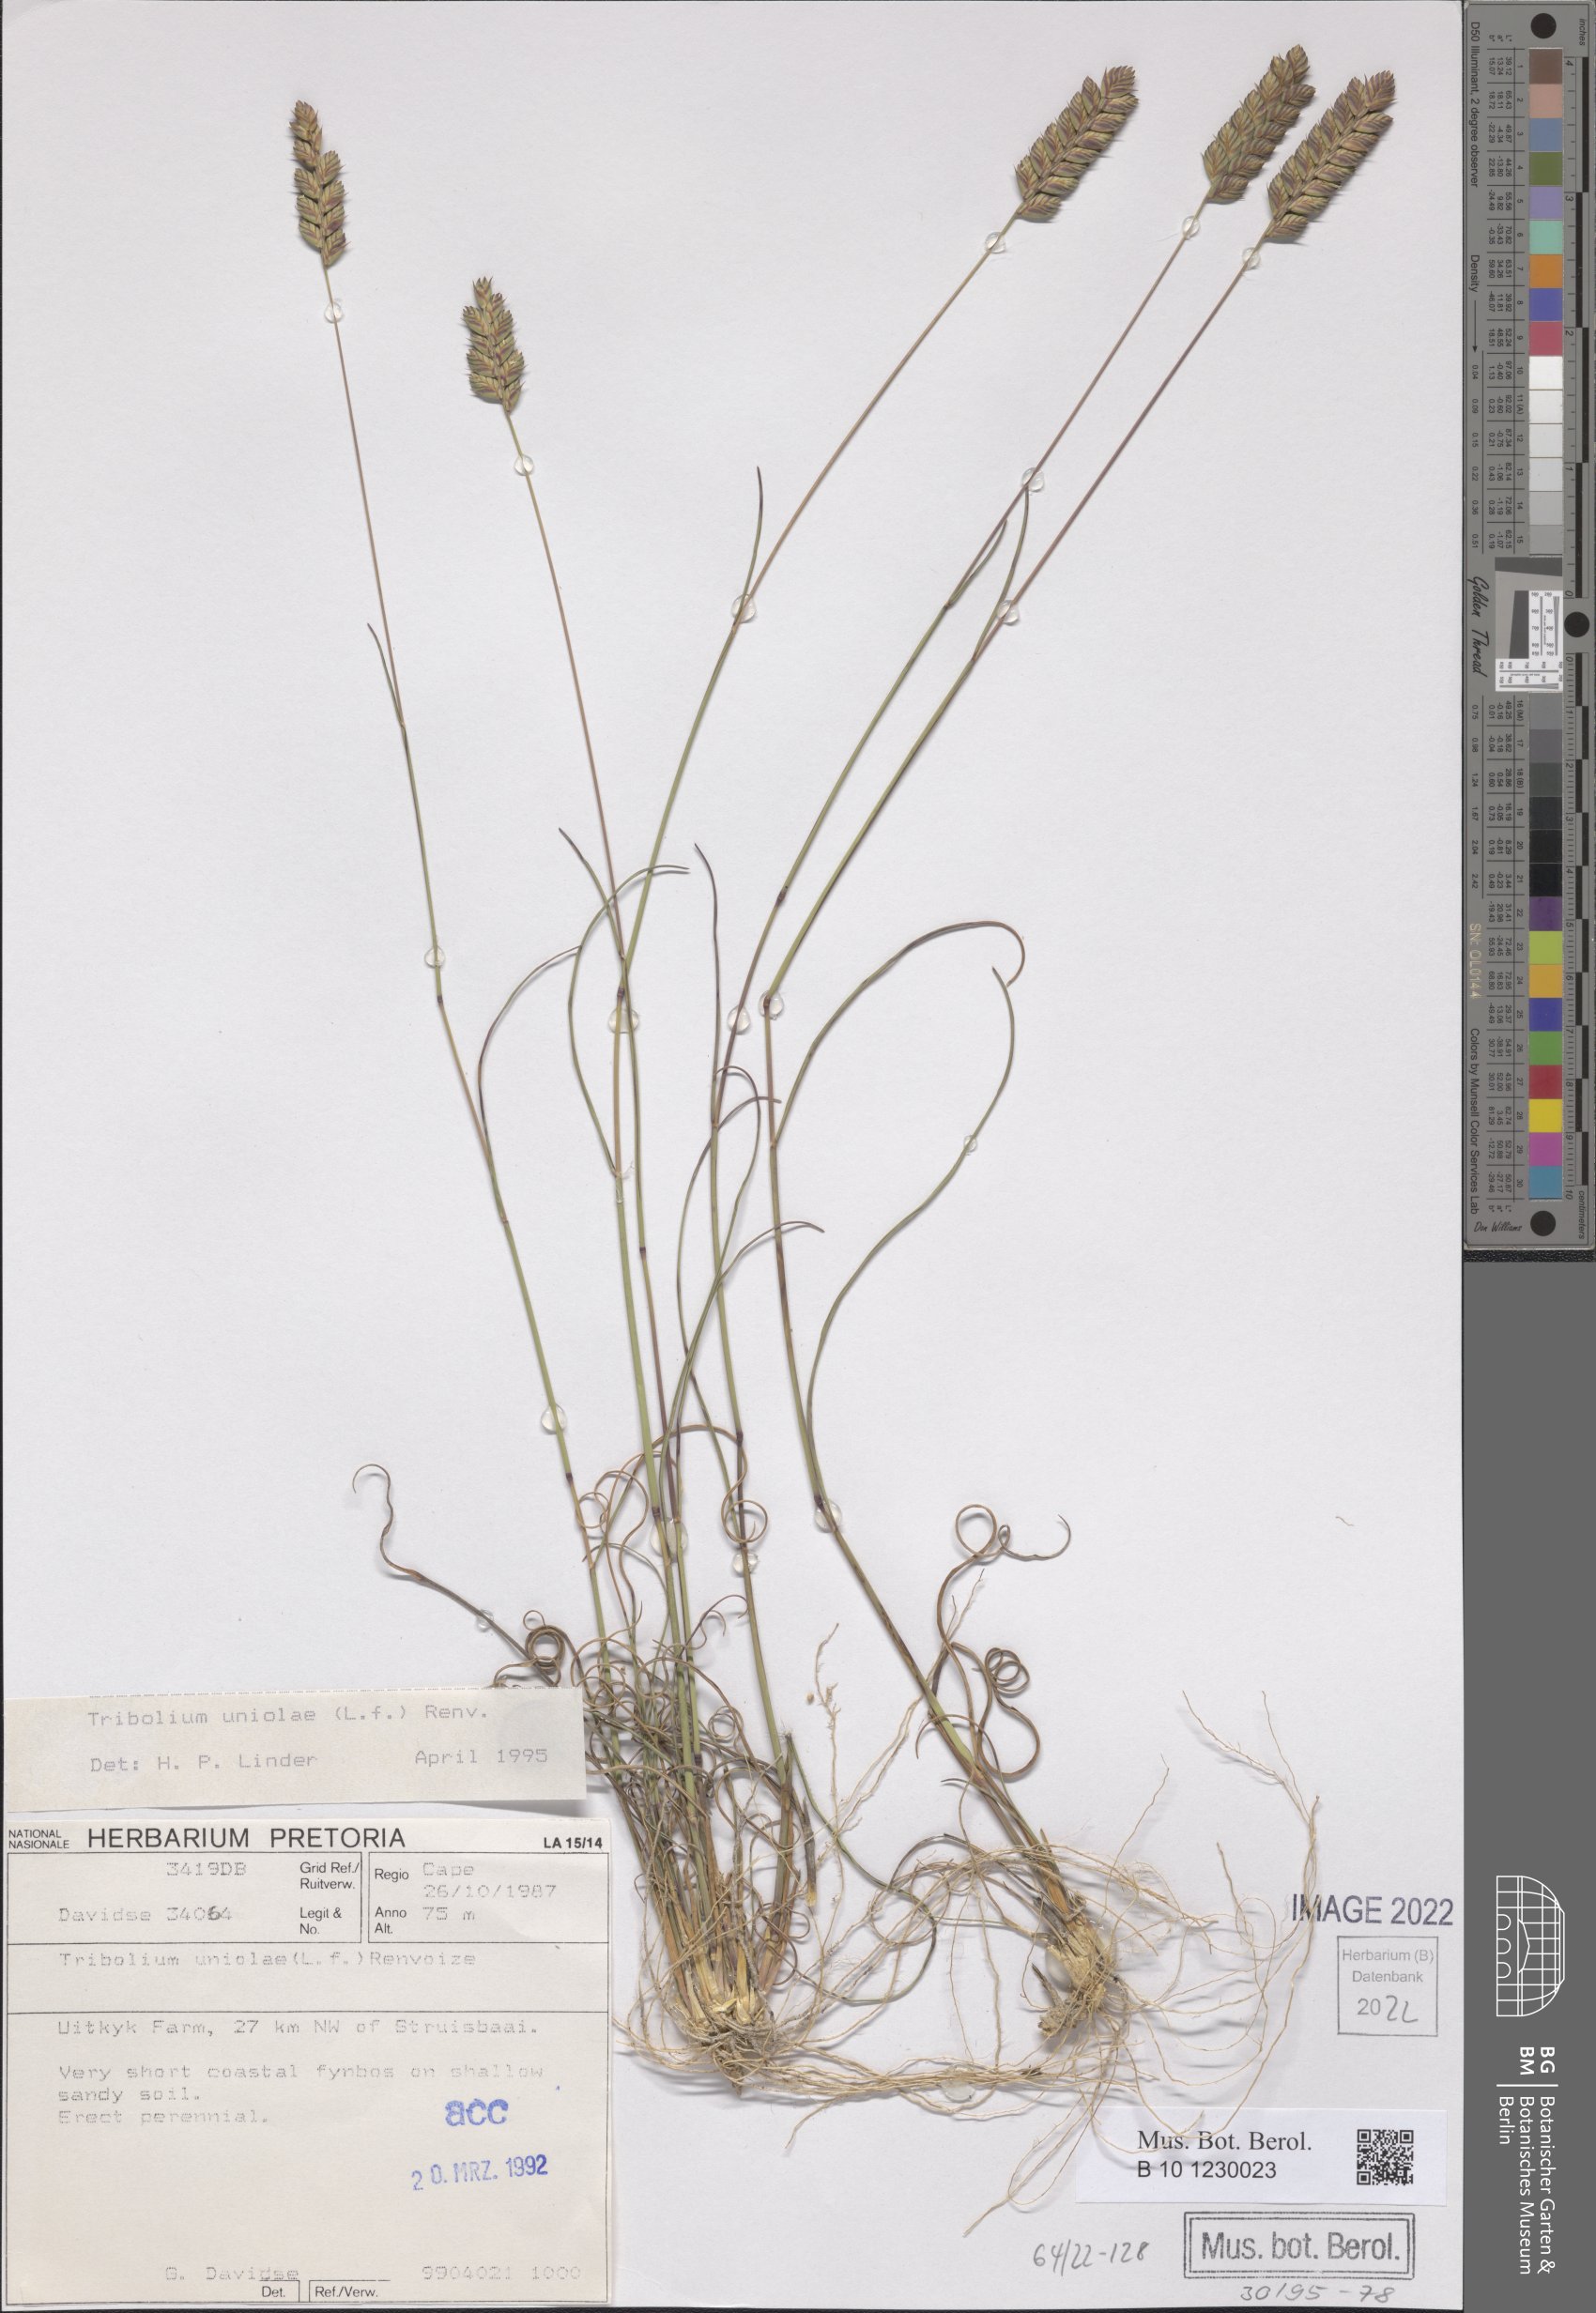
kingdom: Plantae
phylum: Tracheophyta
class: Liliopsida
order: Poales
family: Poaceae
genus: Tribolium
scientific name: Tribolium uniolae
